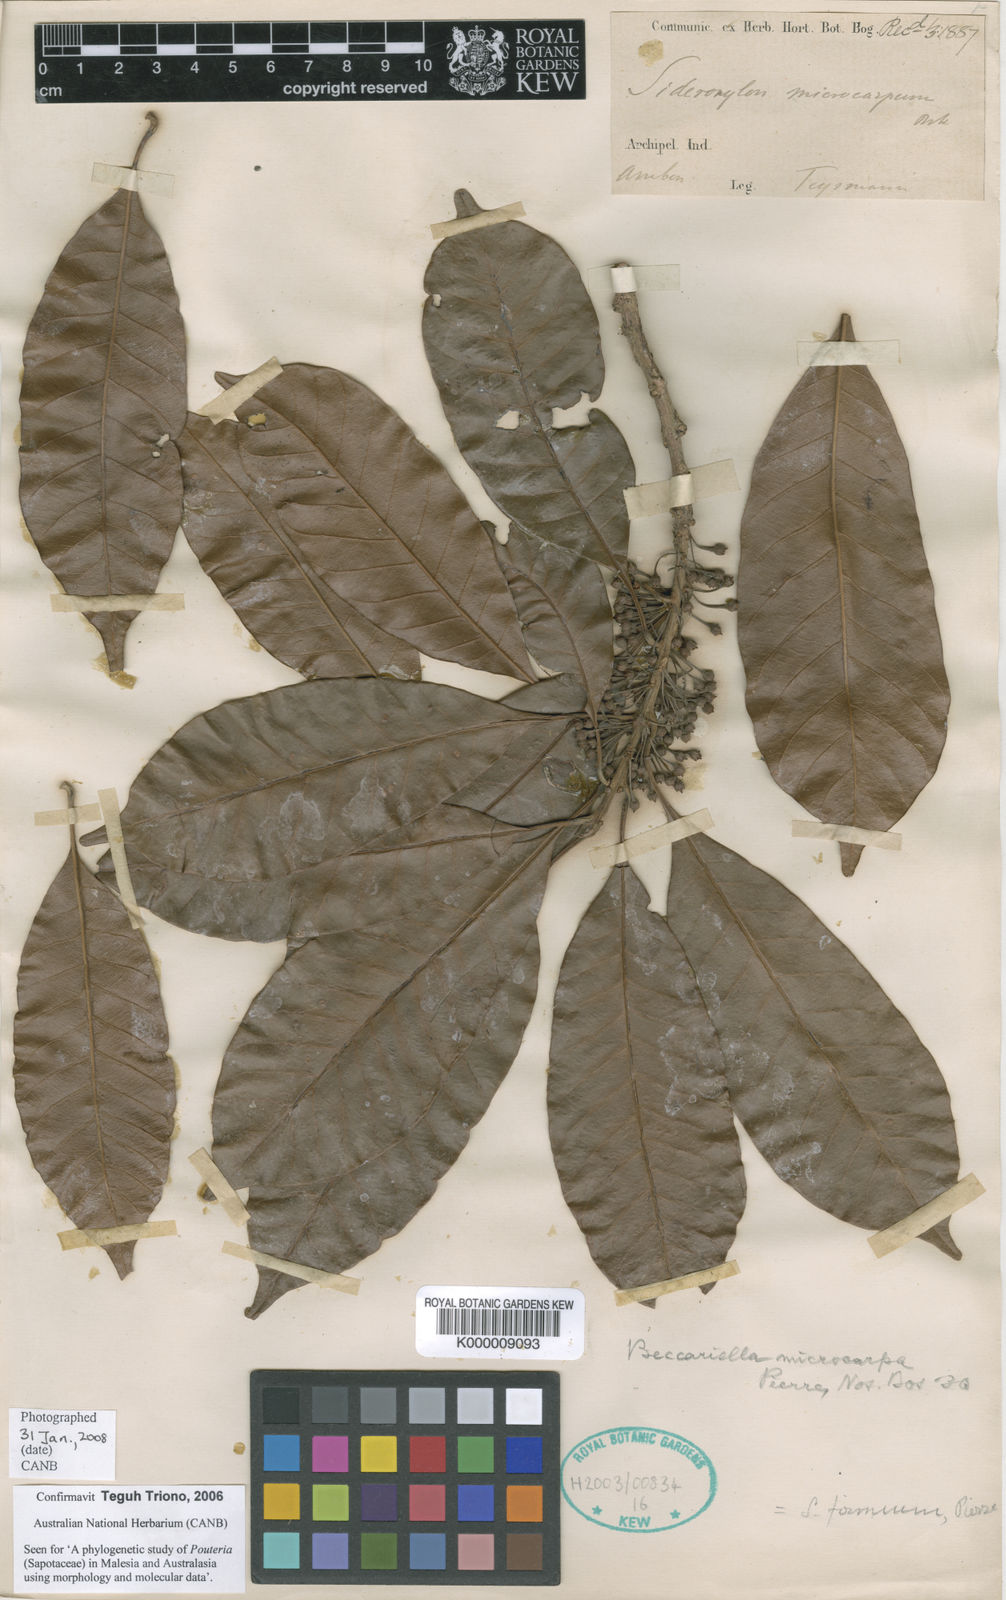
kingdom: Plantae
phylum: Tracheophyta
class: Magnoliopsida
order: Ericales
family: Sapotaceae
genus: Pleioluma
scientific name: Pleioluma firma
